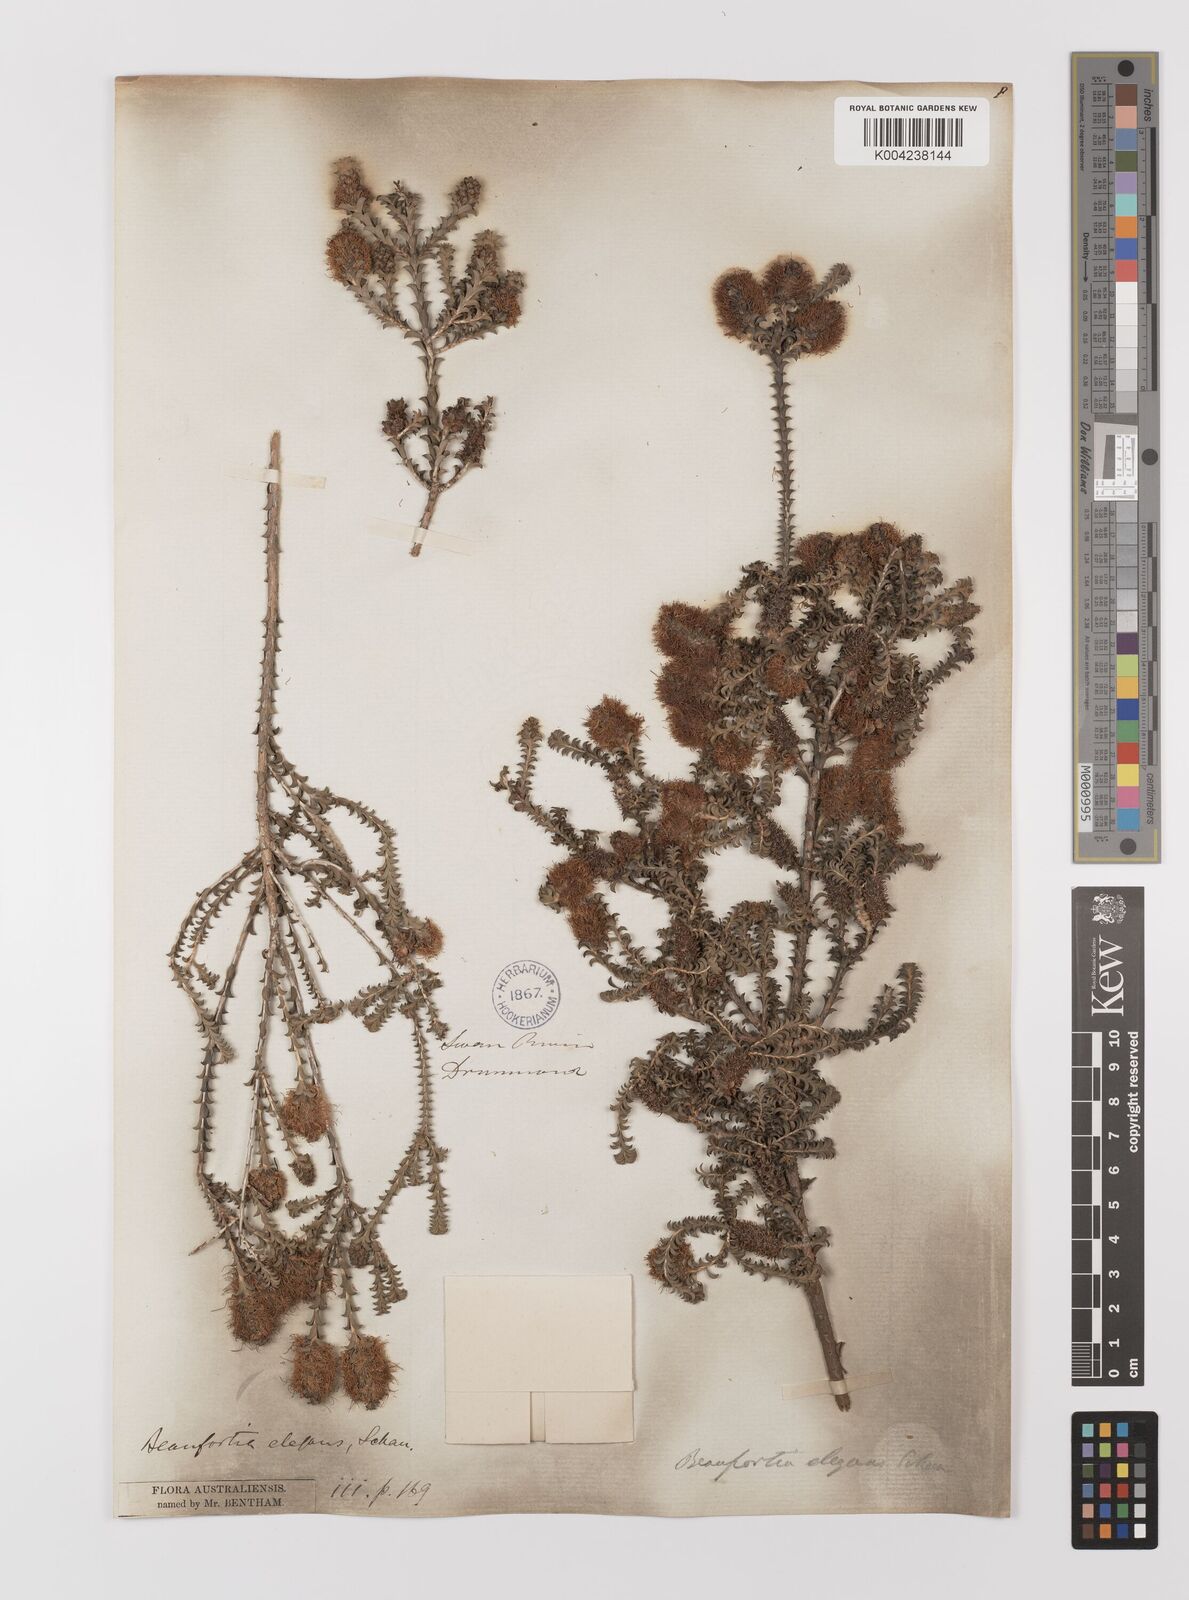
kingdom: Plantae
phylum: Tracheophyta
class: Magnoliopsida
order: Myrtales
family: Myrtaceae
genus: Melaleuca
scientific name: Melaleuca scitula
